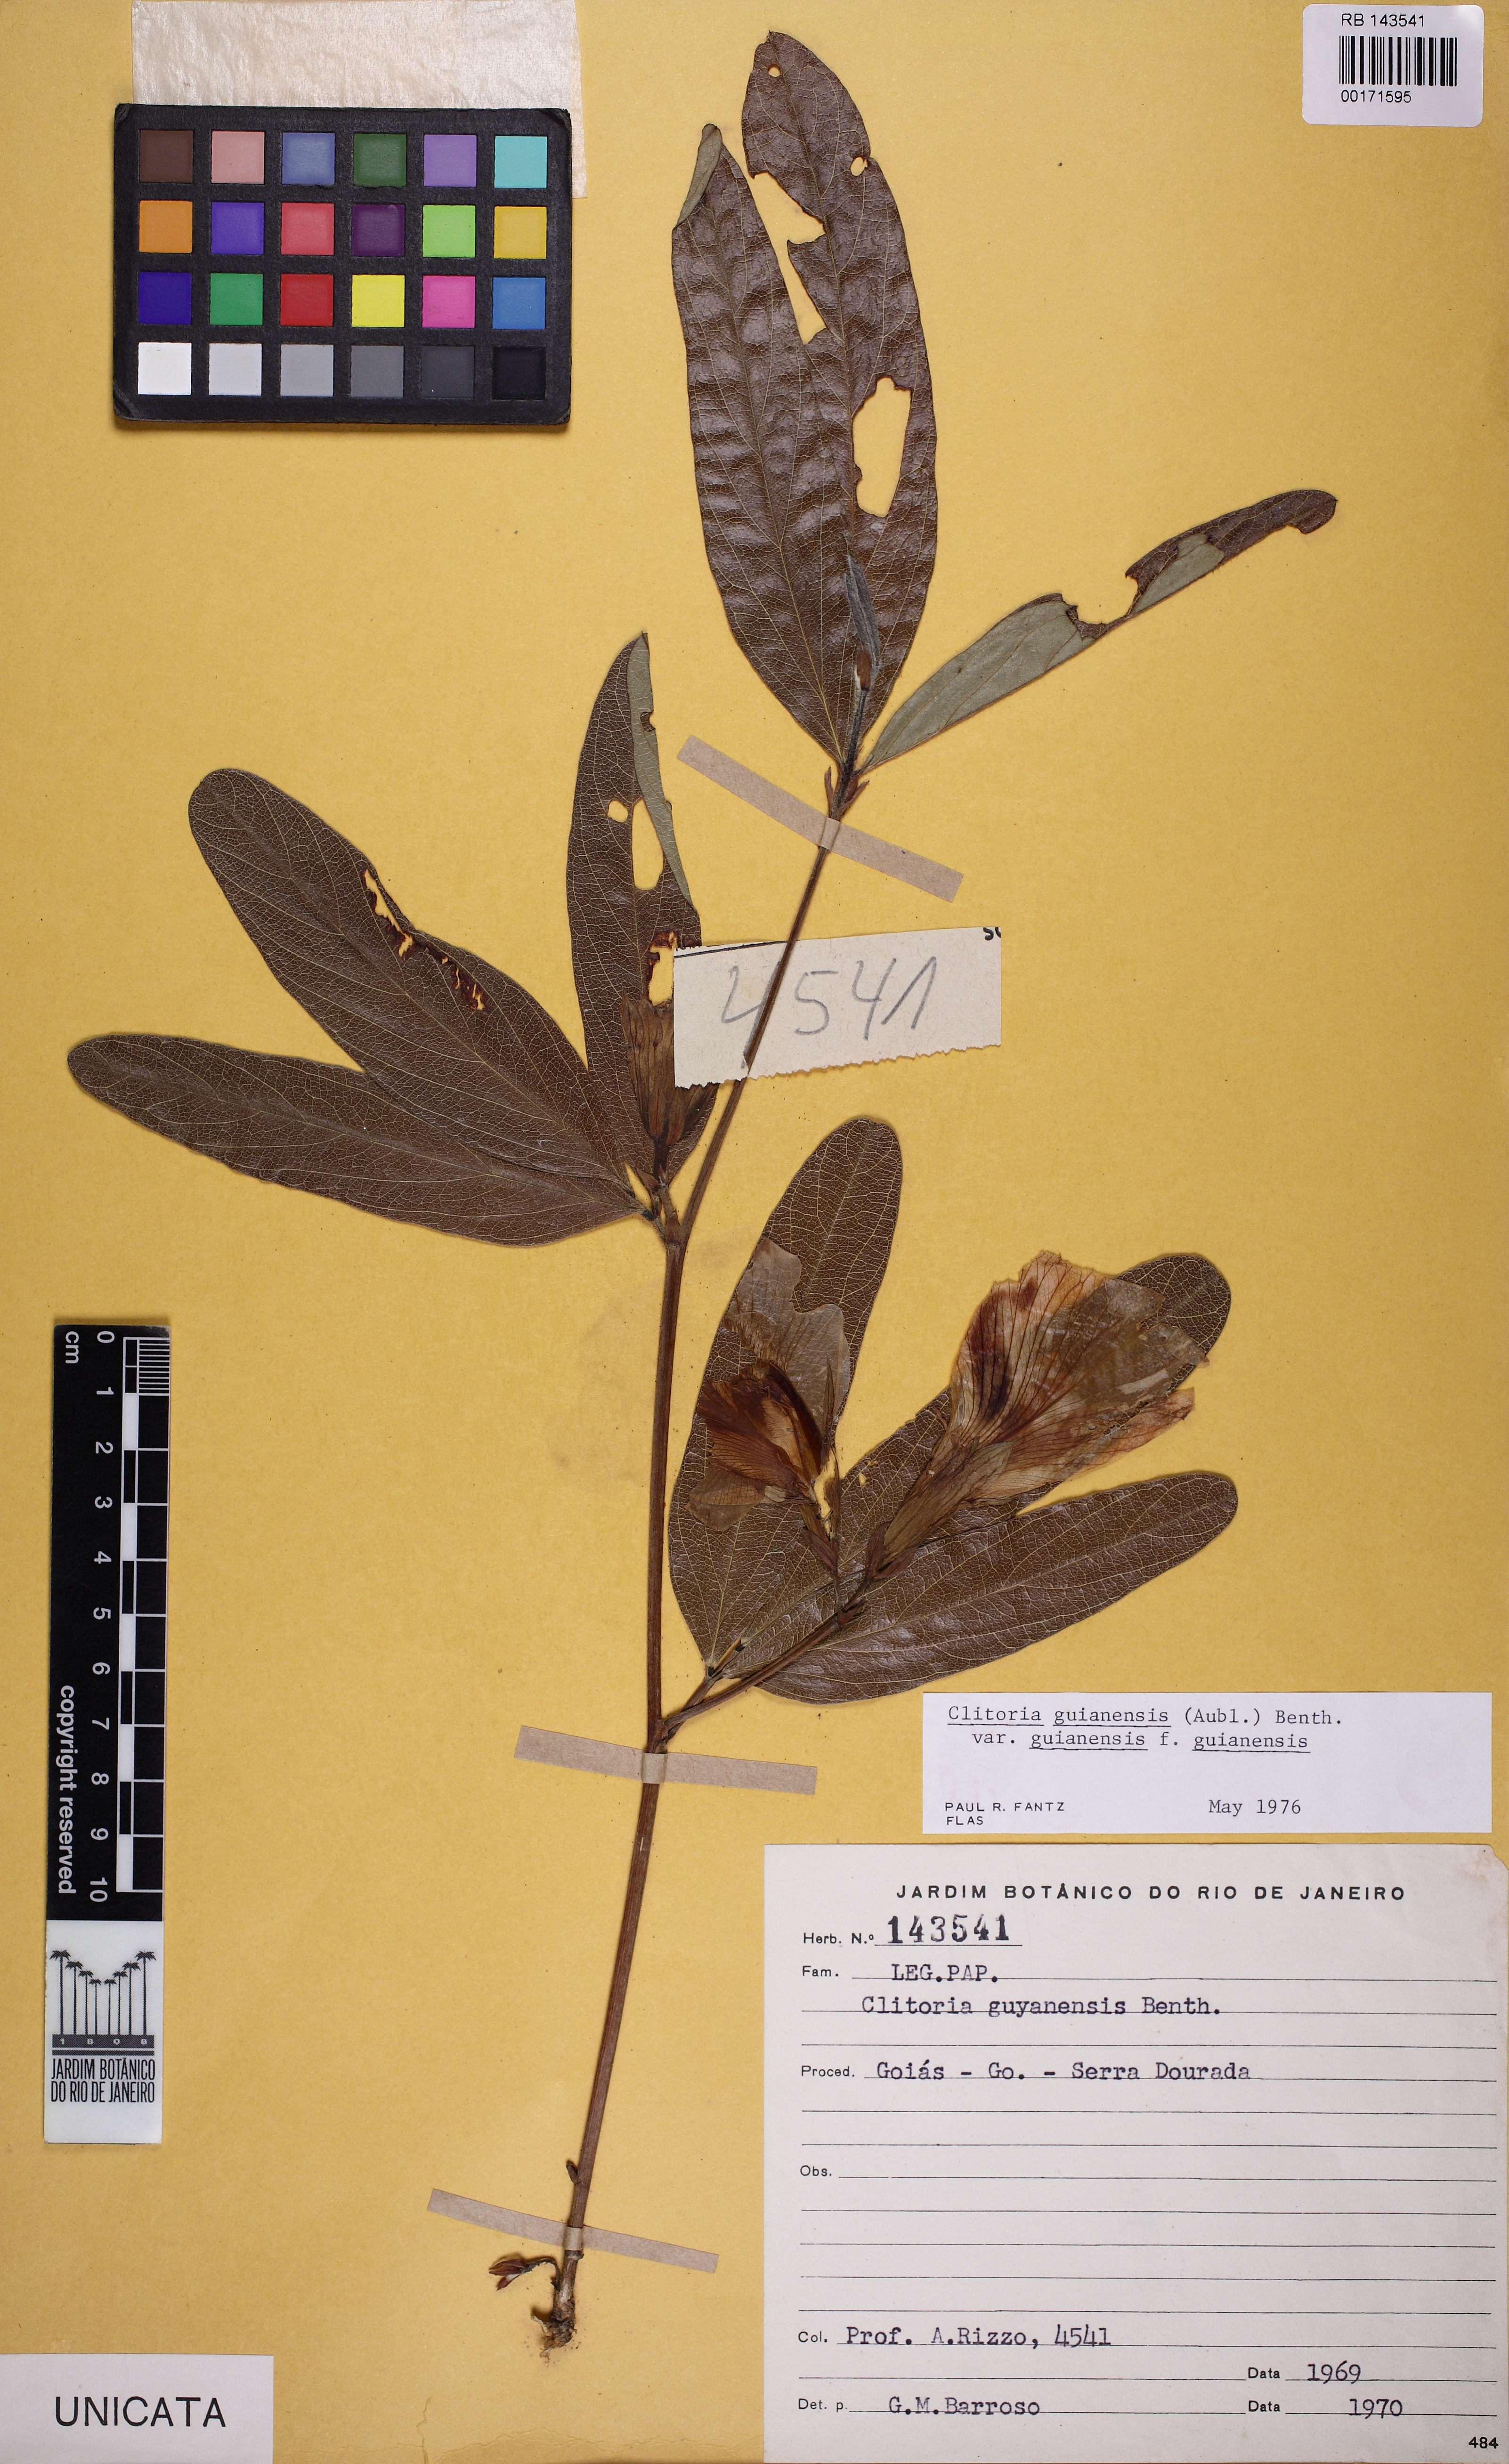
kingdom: Plantae
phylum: Tracheophyta
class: Magnoliopsida
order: Fabales
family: Fabaceae
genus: Clitoria
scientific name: Clitoria guianensis
